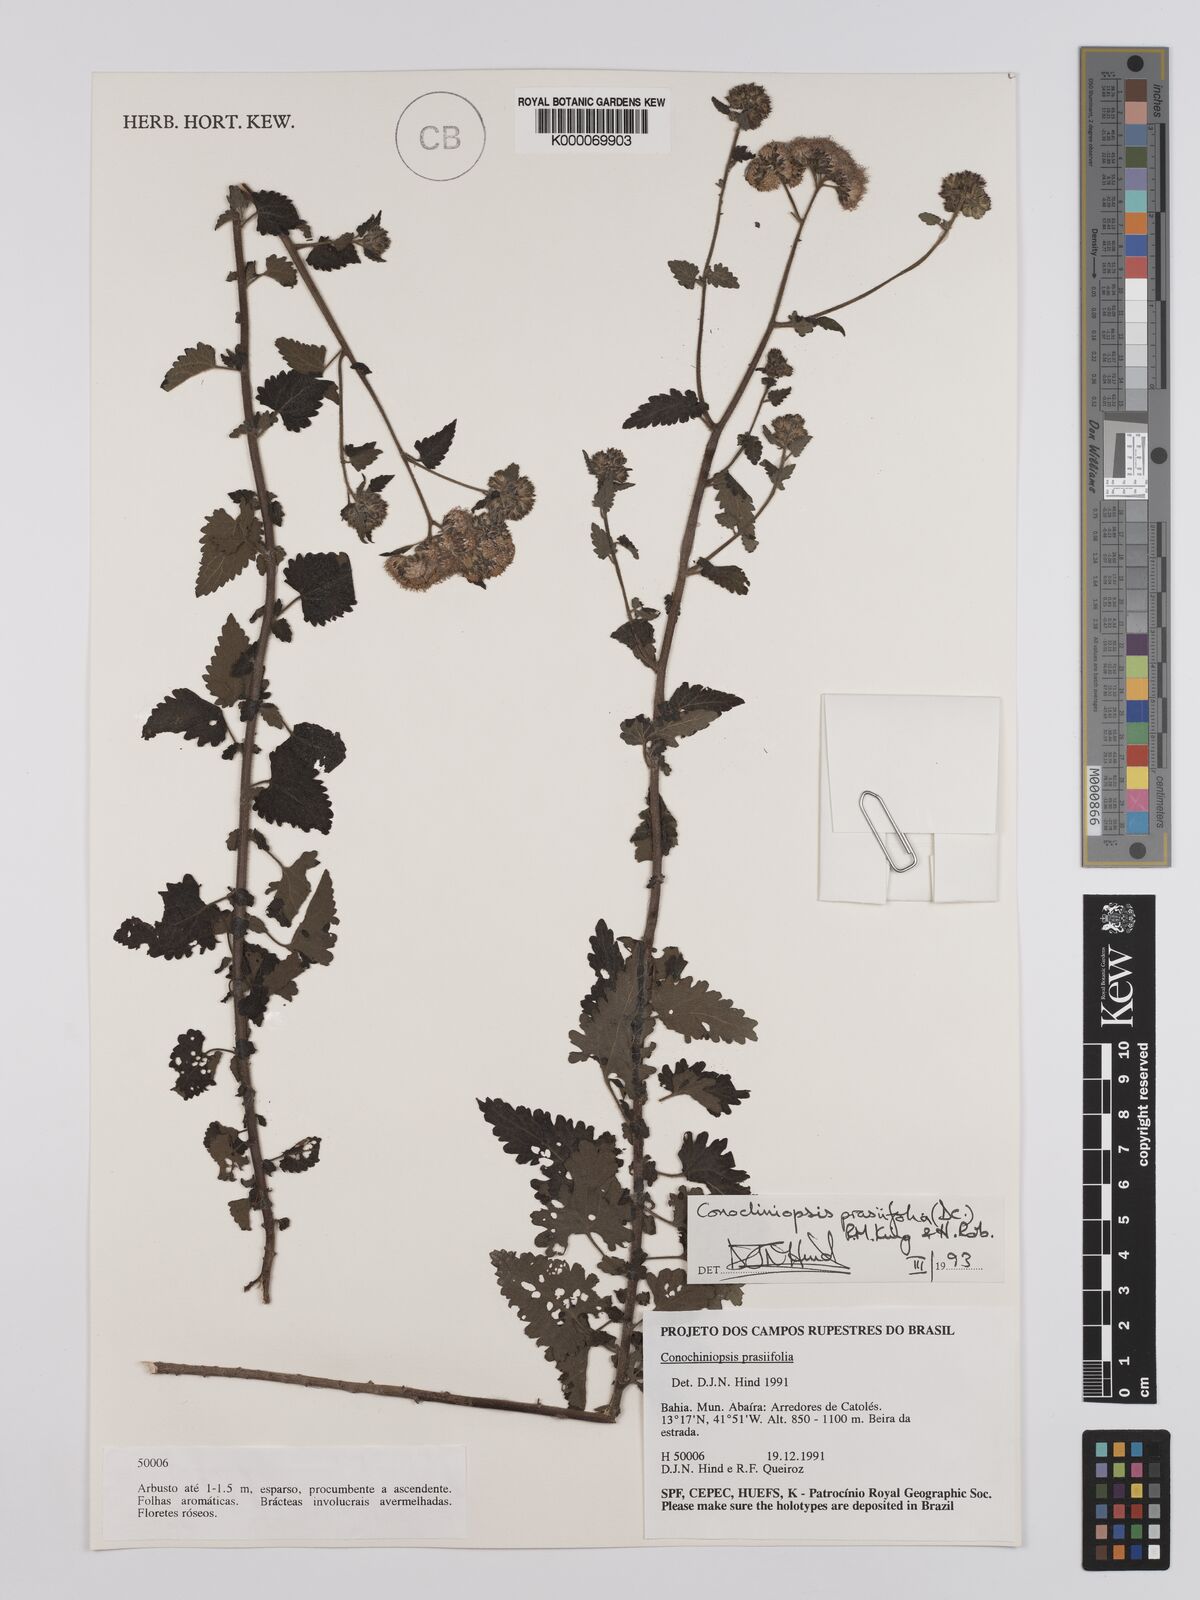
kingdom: Plantae
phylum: Tracheophyta
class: Magnoliopsida
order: Asterales
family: Asteraceae
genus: Conocliniopsis
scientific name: Conocliniopsis grossedentata
